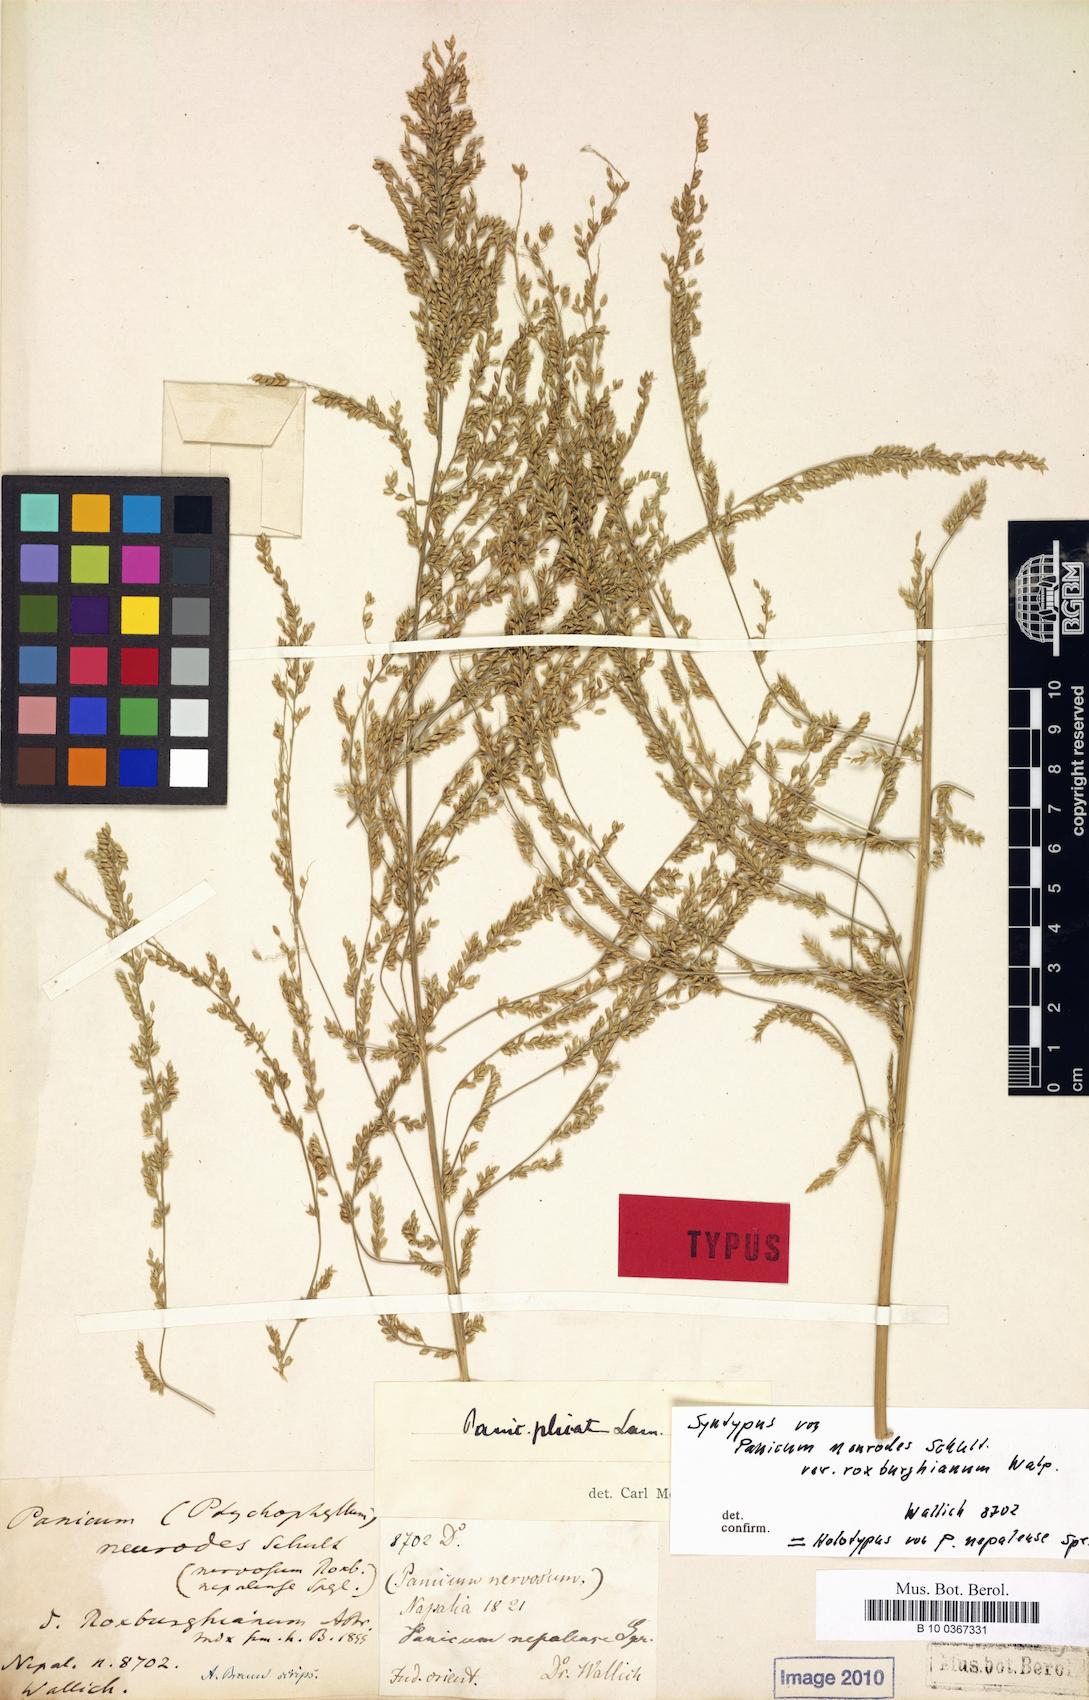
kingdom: Plantae
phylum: Tracheophyta
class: Liliopsida
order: Poales
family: Poaceae
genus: Setaria
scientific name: Setaria palmifolia
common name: Broadleaved bristlegrass
